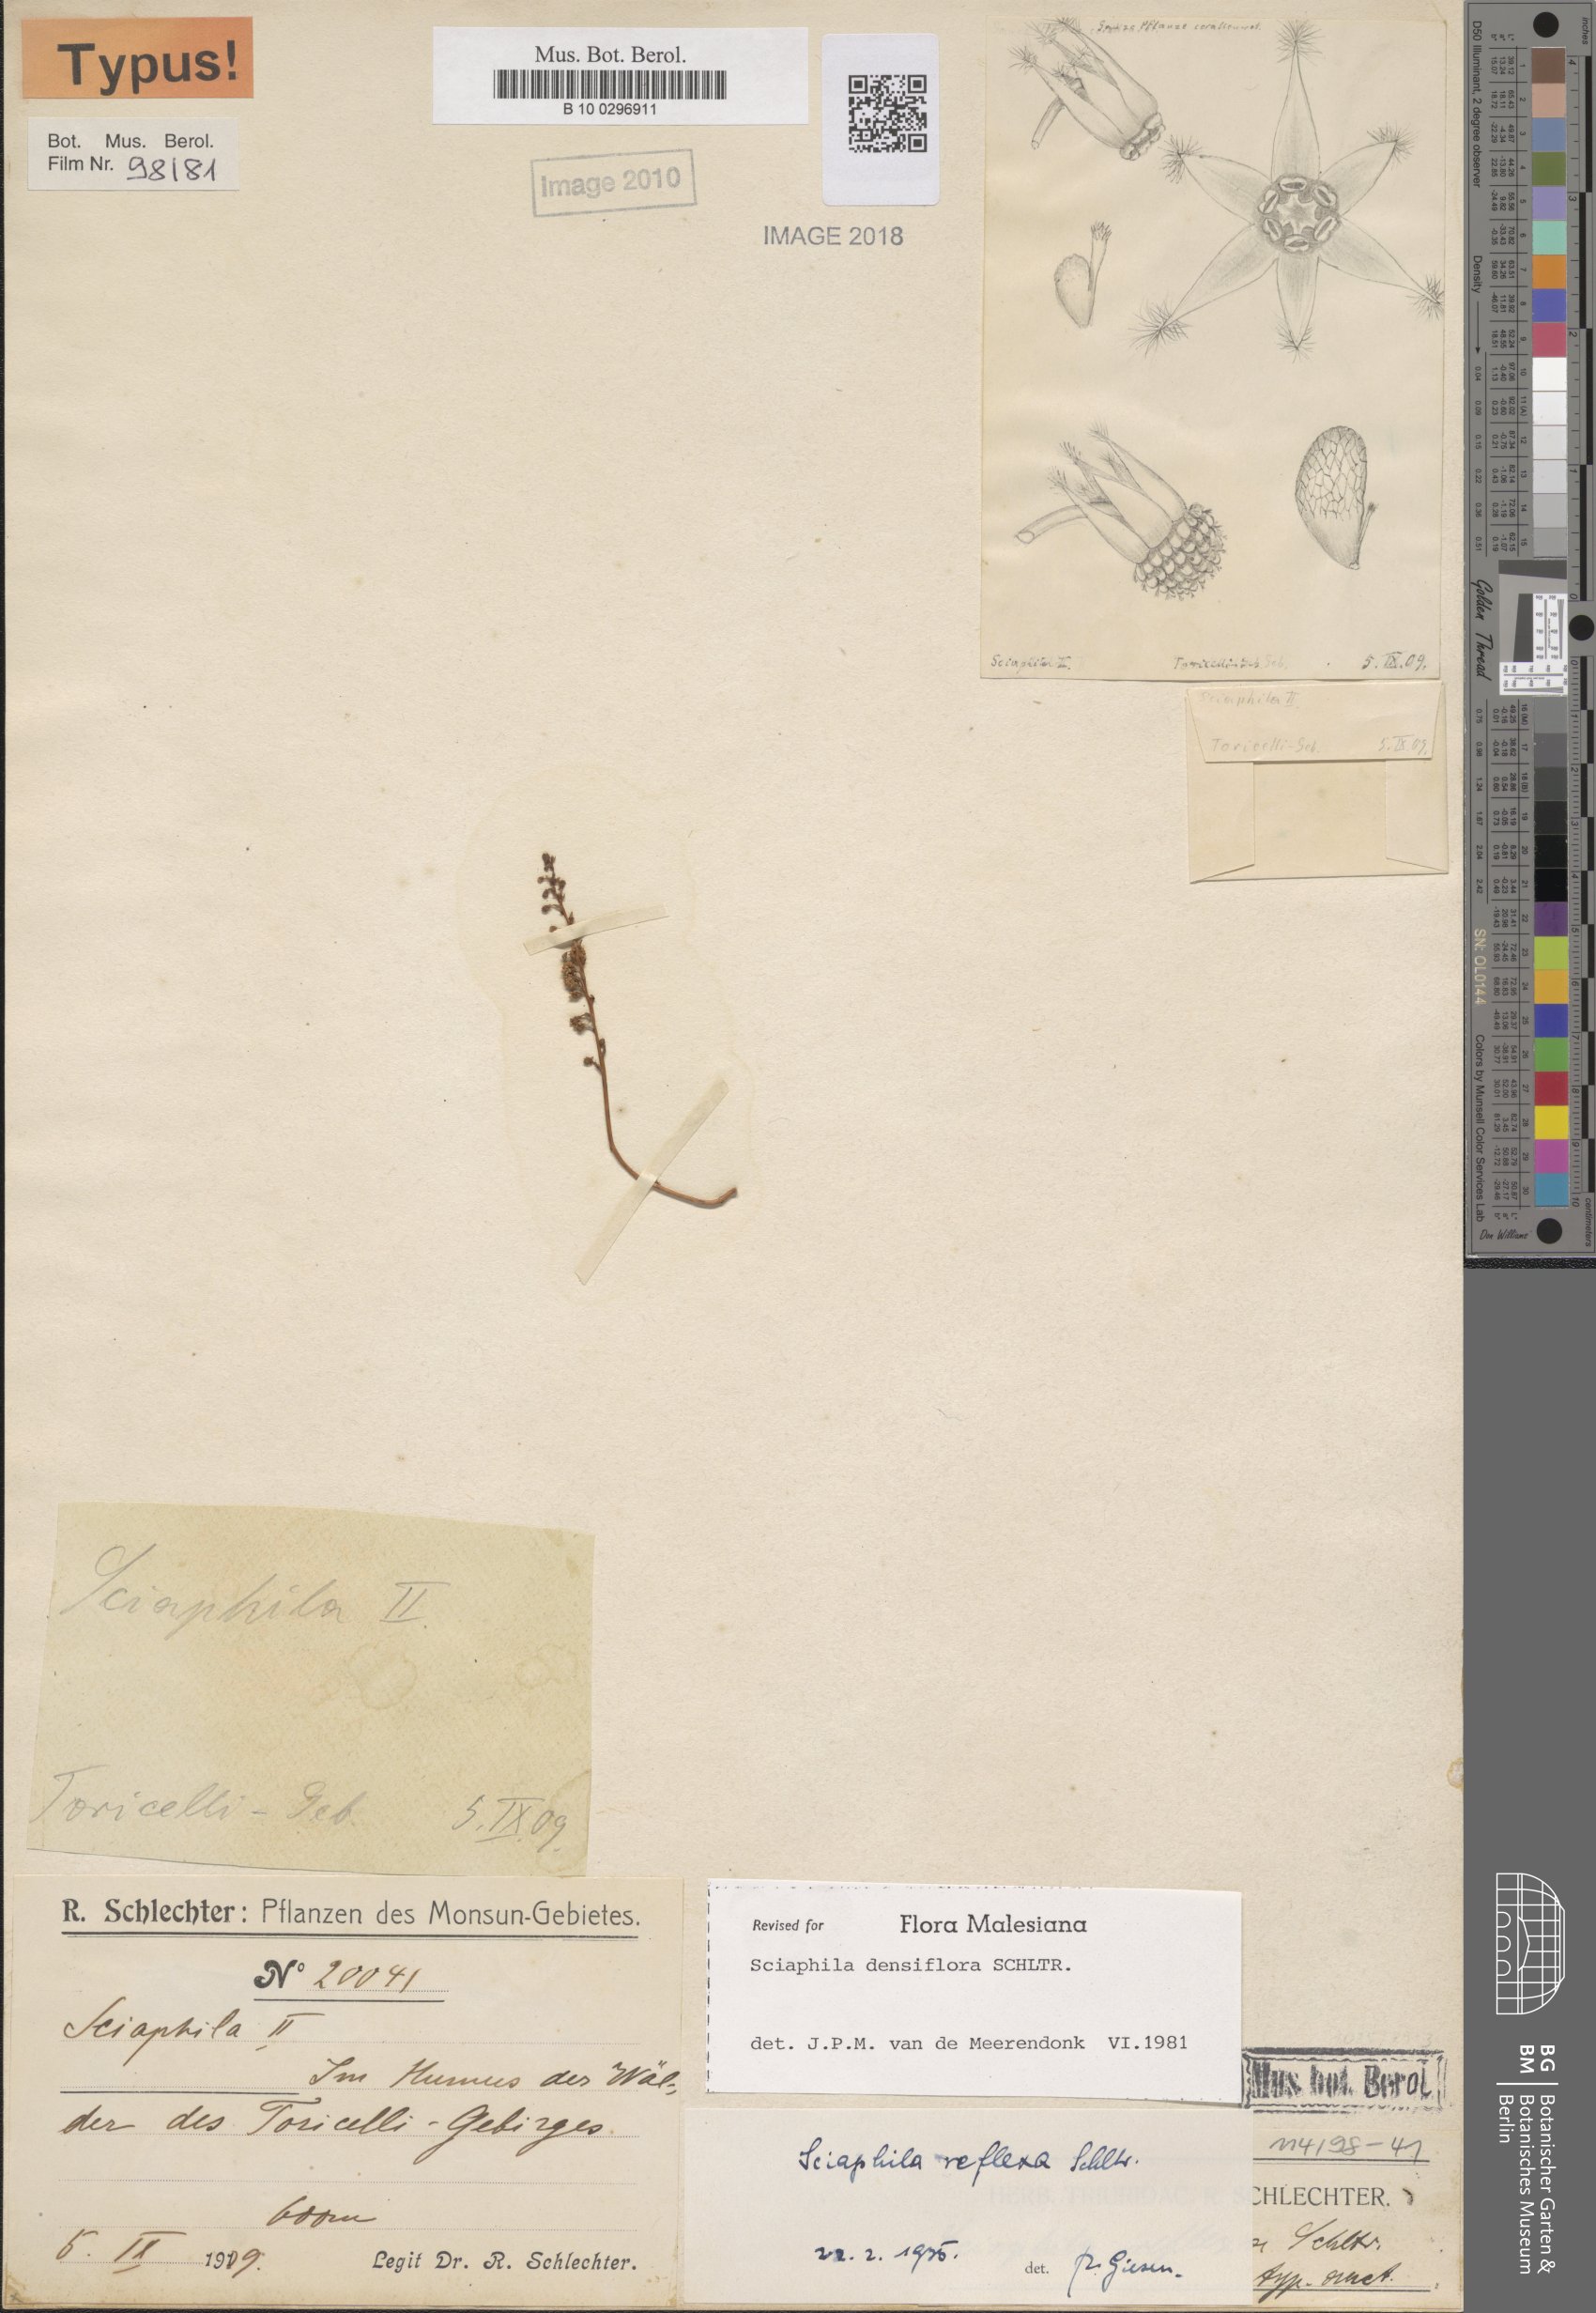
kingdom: Plantae
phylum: Tracheophyta
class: Liliopsida
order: Pandanales
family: Triuridaceae
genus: Sciaphila
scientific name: Sciaphila densiflora
